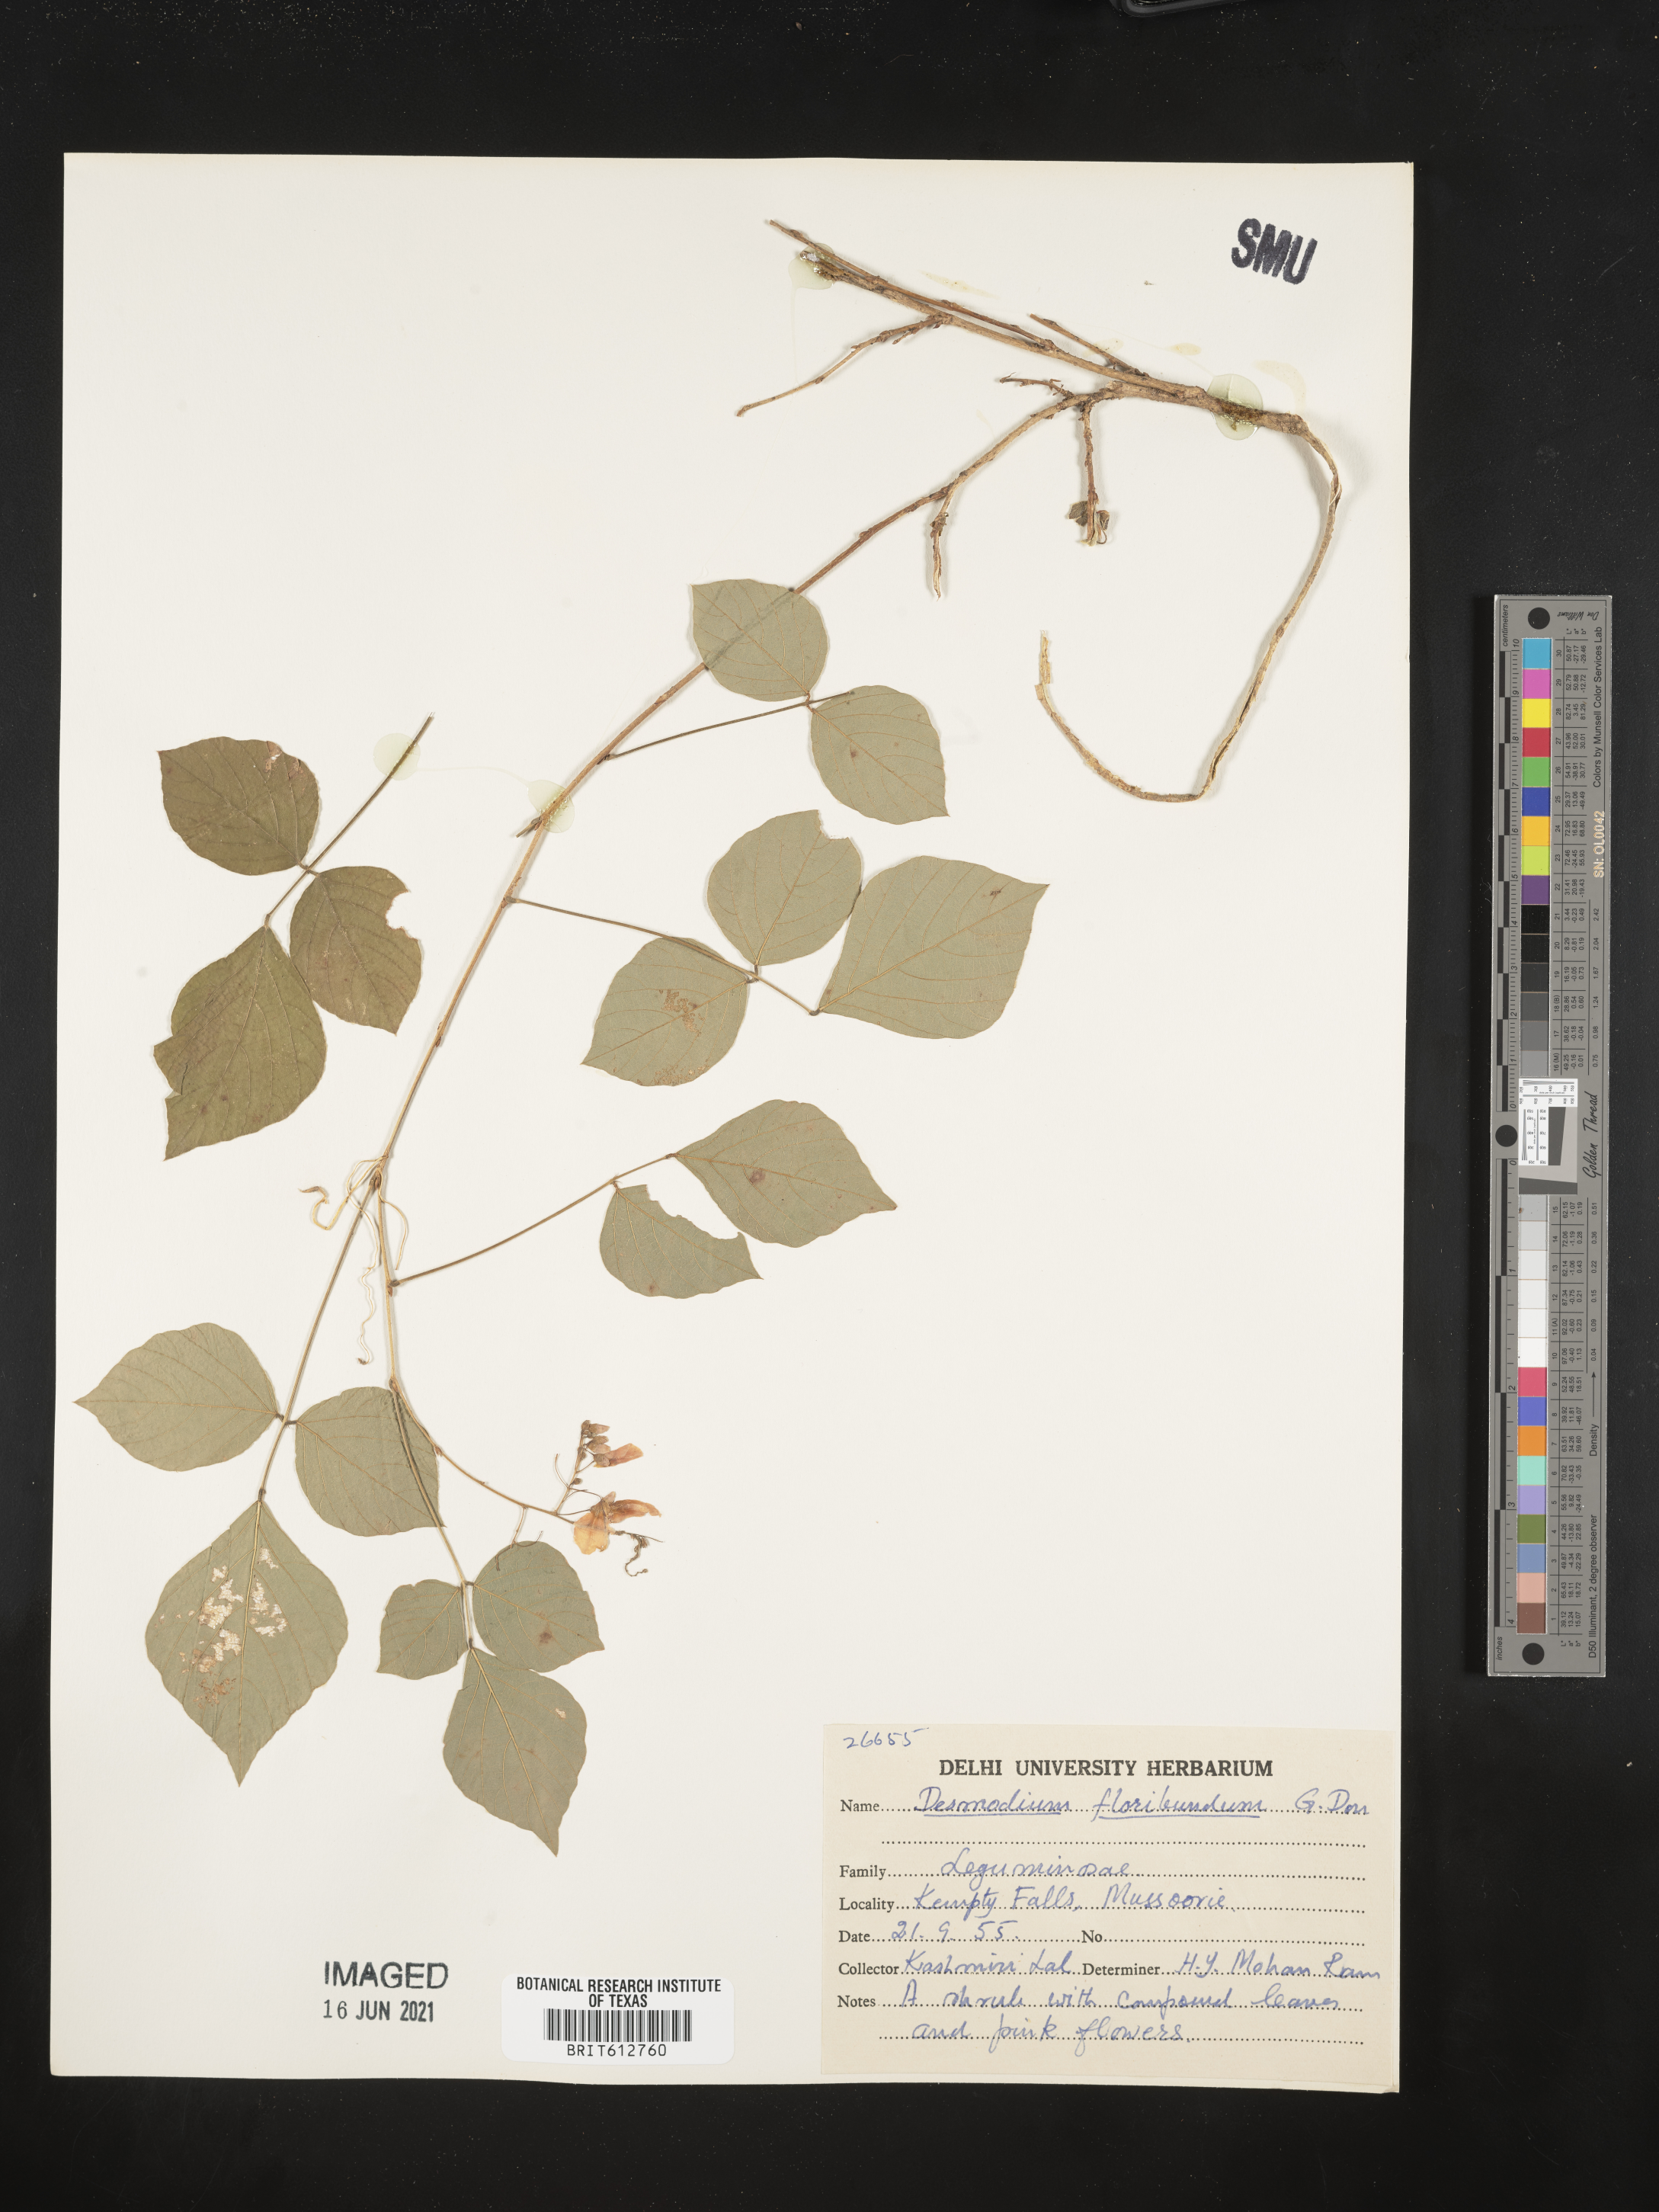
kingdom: Plantae
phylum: Tracheophyta
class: Magnoliopsida
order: Fabales
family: Fabaceae
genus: Ototropis
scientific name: Ototropis multiflora
